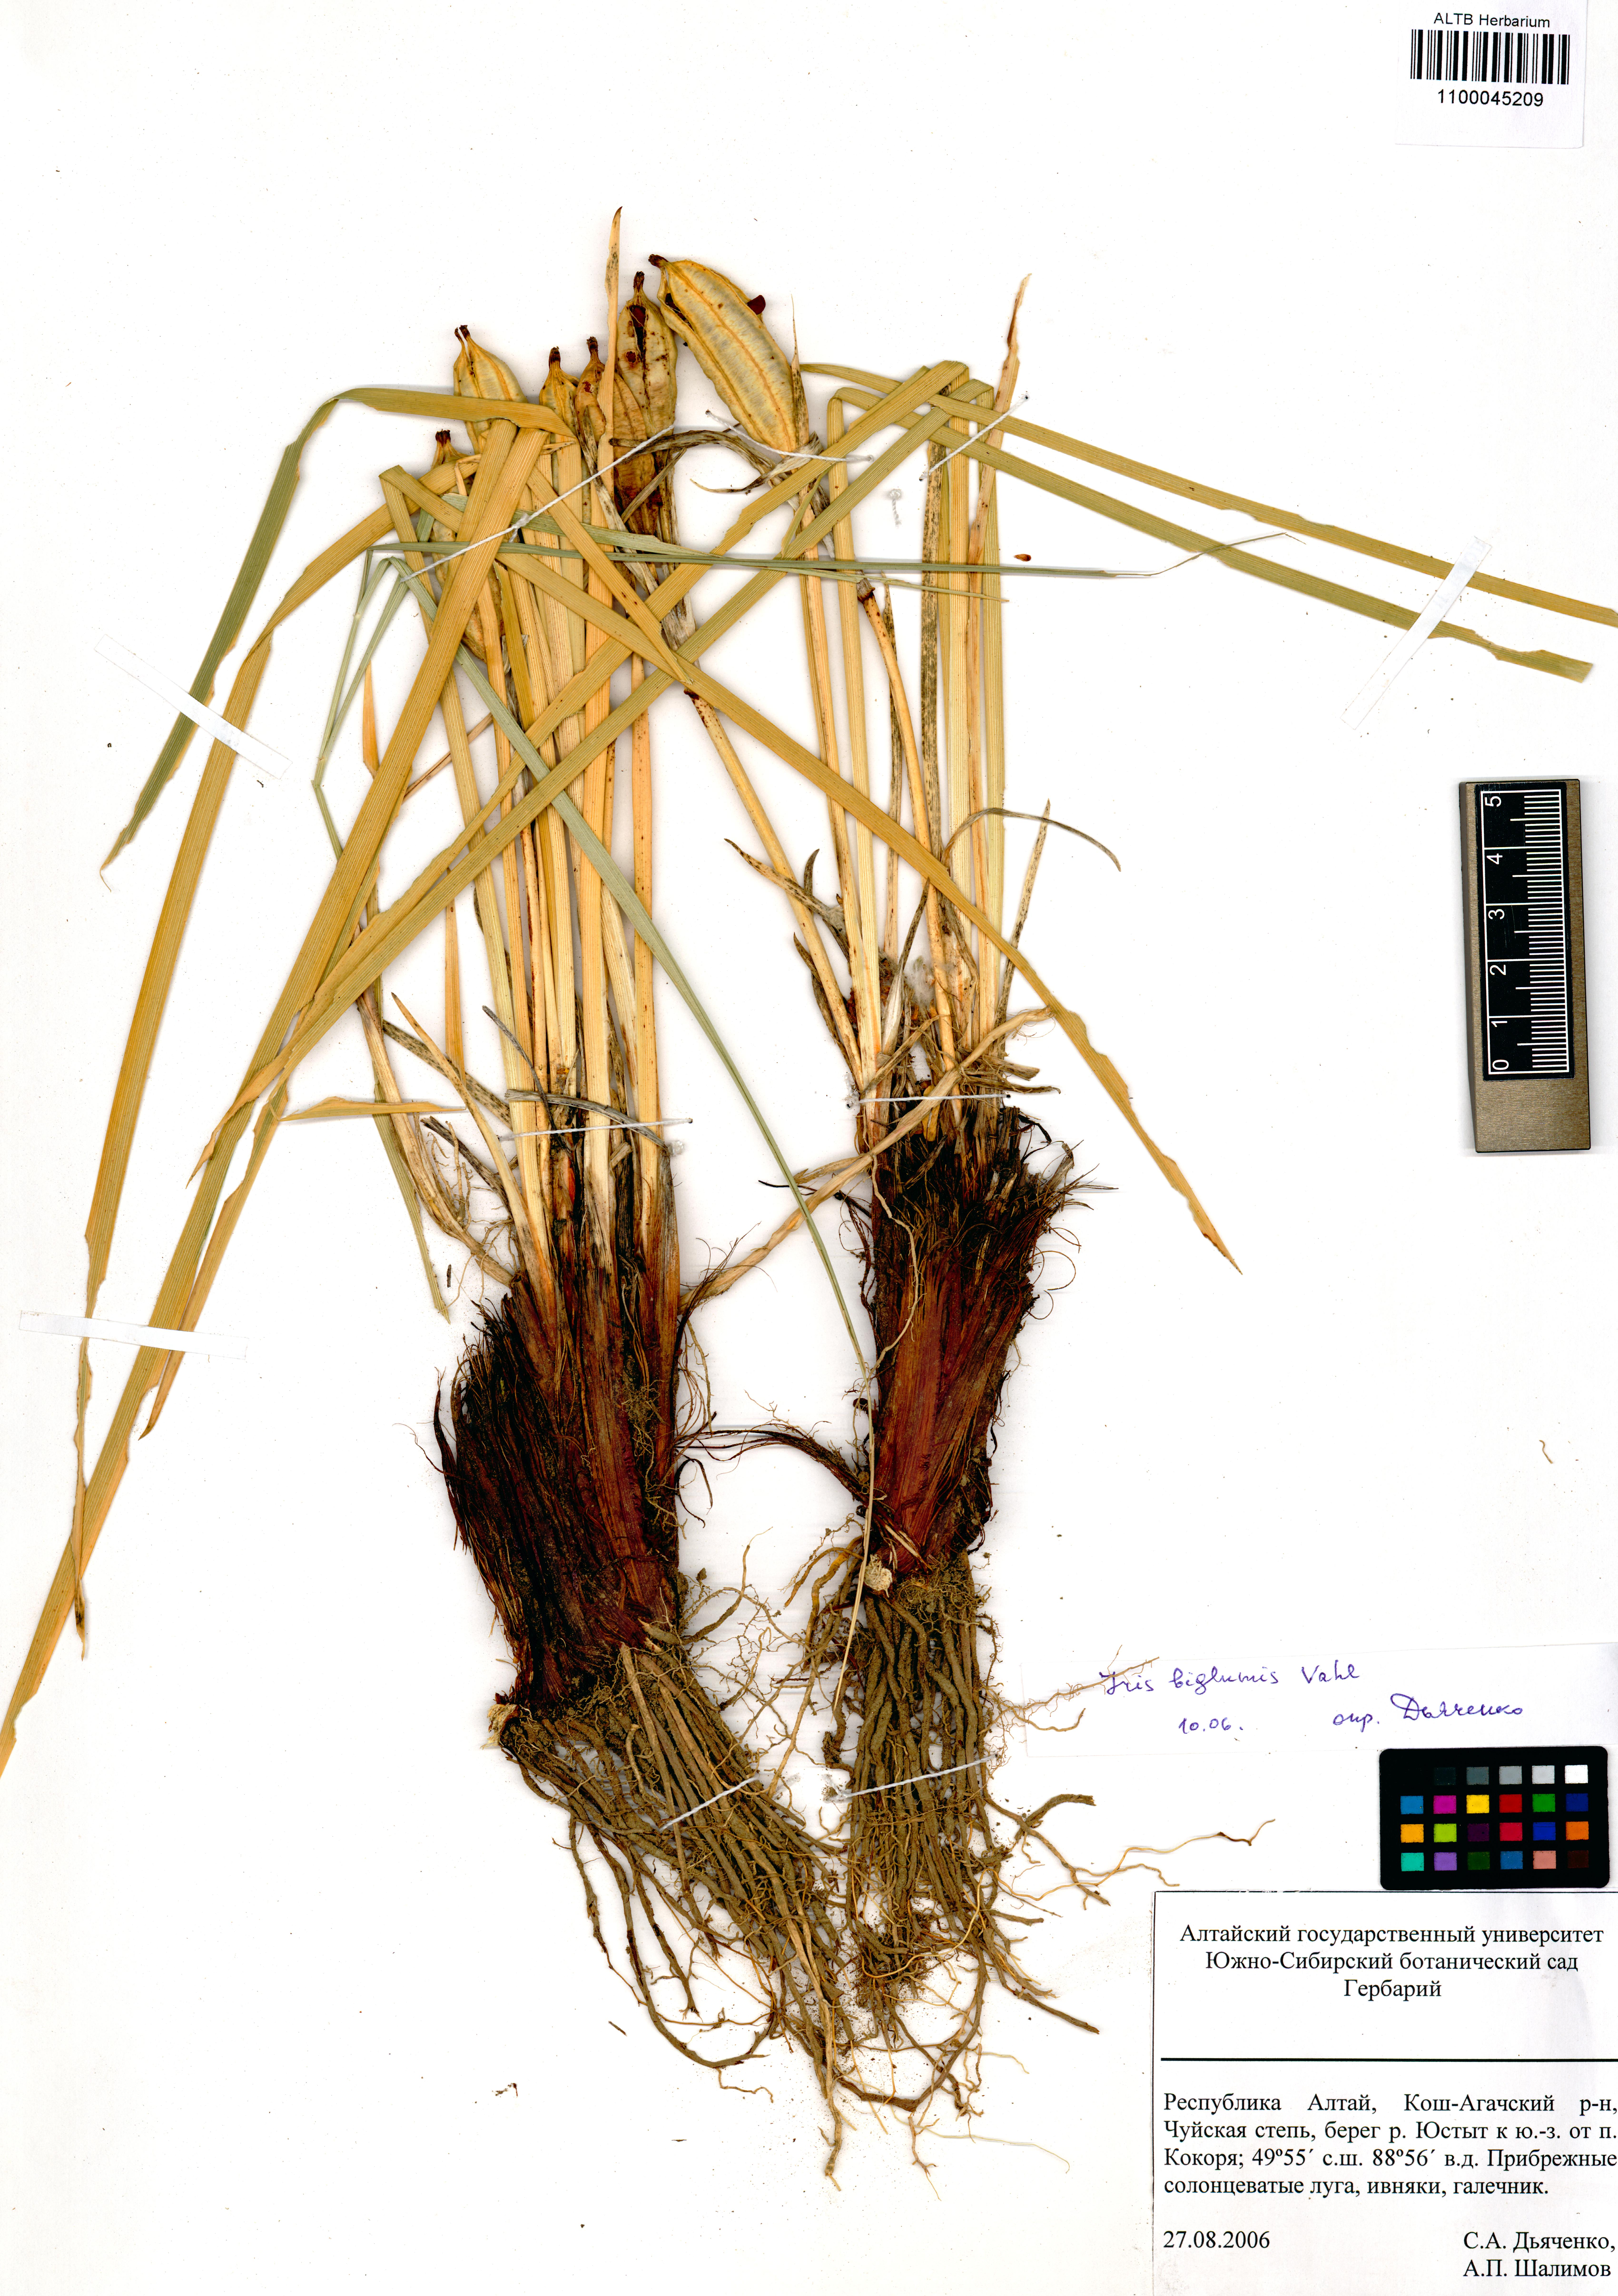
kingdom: Plantae
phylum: Tracheophyta
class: Liliopsida
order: Asparagales
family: Iridaceae
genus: Iris
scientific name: Iris lactea
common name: White-flower chinese iris
